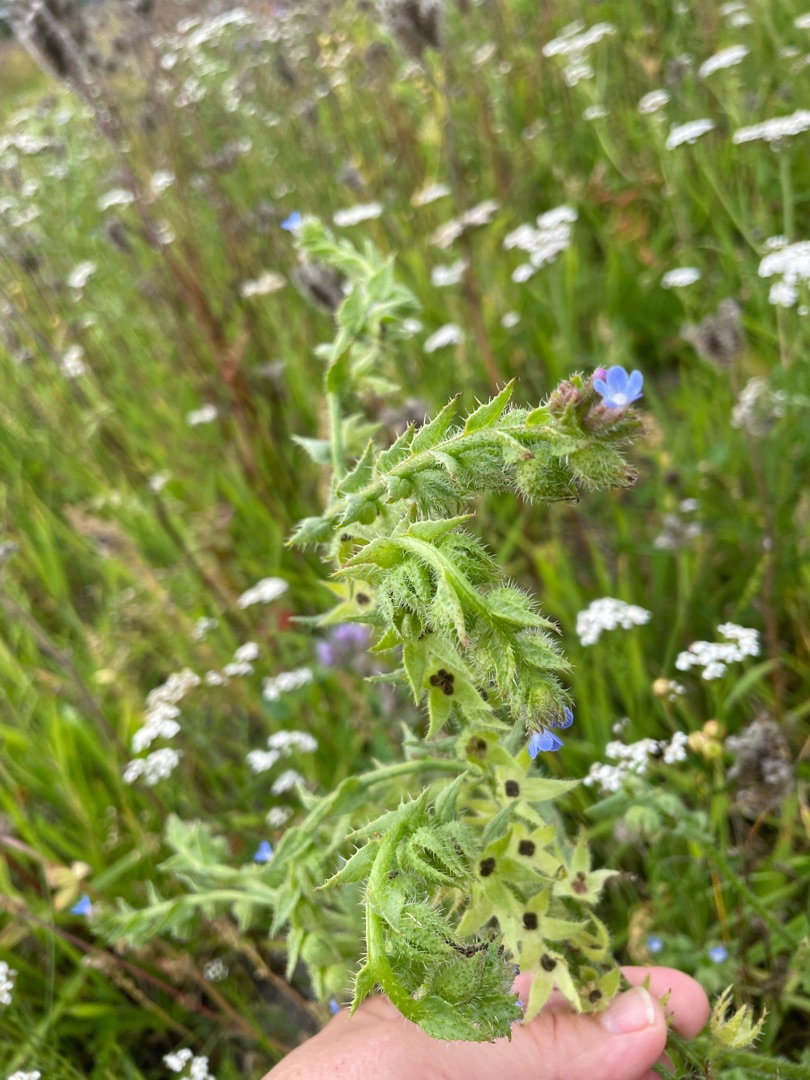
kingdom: Plantae
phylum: Tracheophyta
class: Magnoliopsida
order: Boraginales
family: Boraginaceae
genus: Lycopsis
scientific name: Lycopsis arvensis
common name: Krumhals
